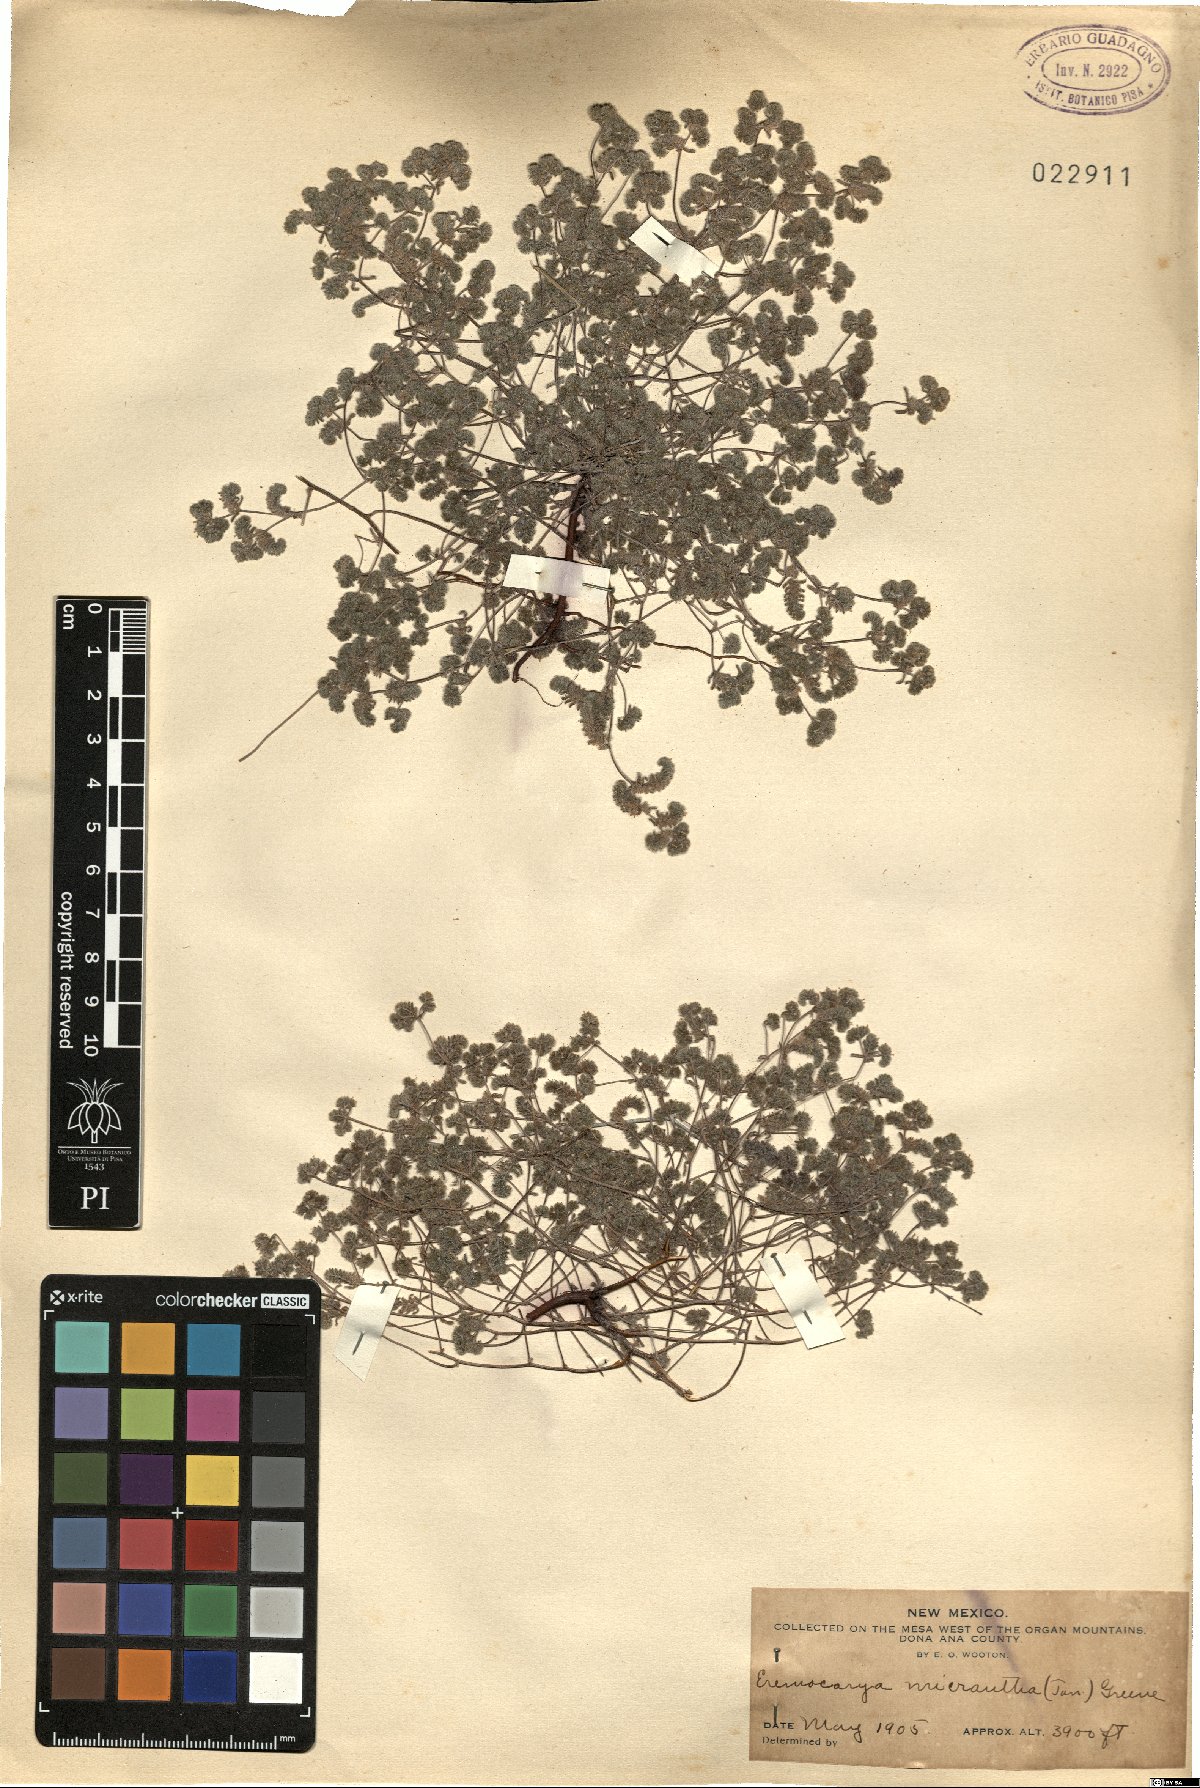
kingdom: Plantae
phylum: Tracheophyta
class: Magnoliopsida
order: Boraginales
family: Boraginaceae
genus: Eremocarya
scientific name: Eremocarya micrantha
